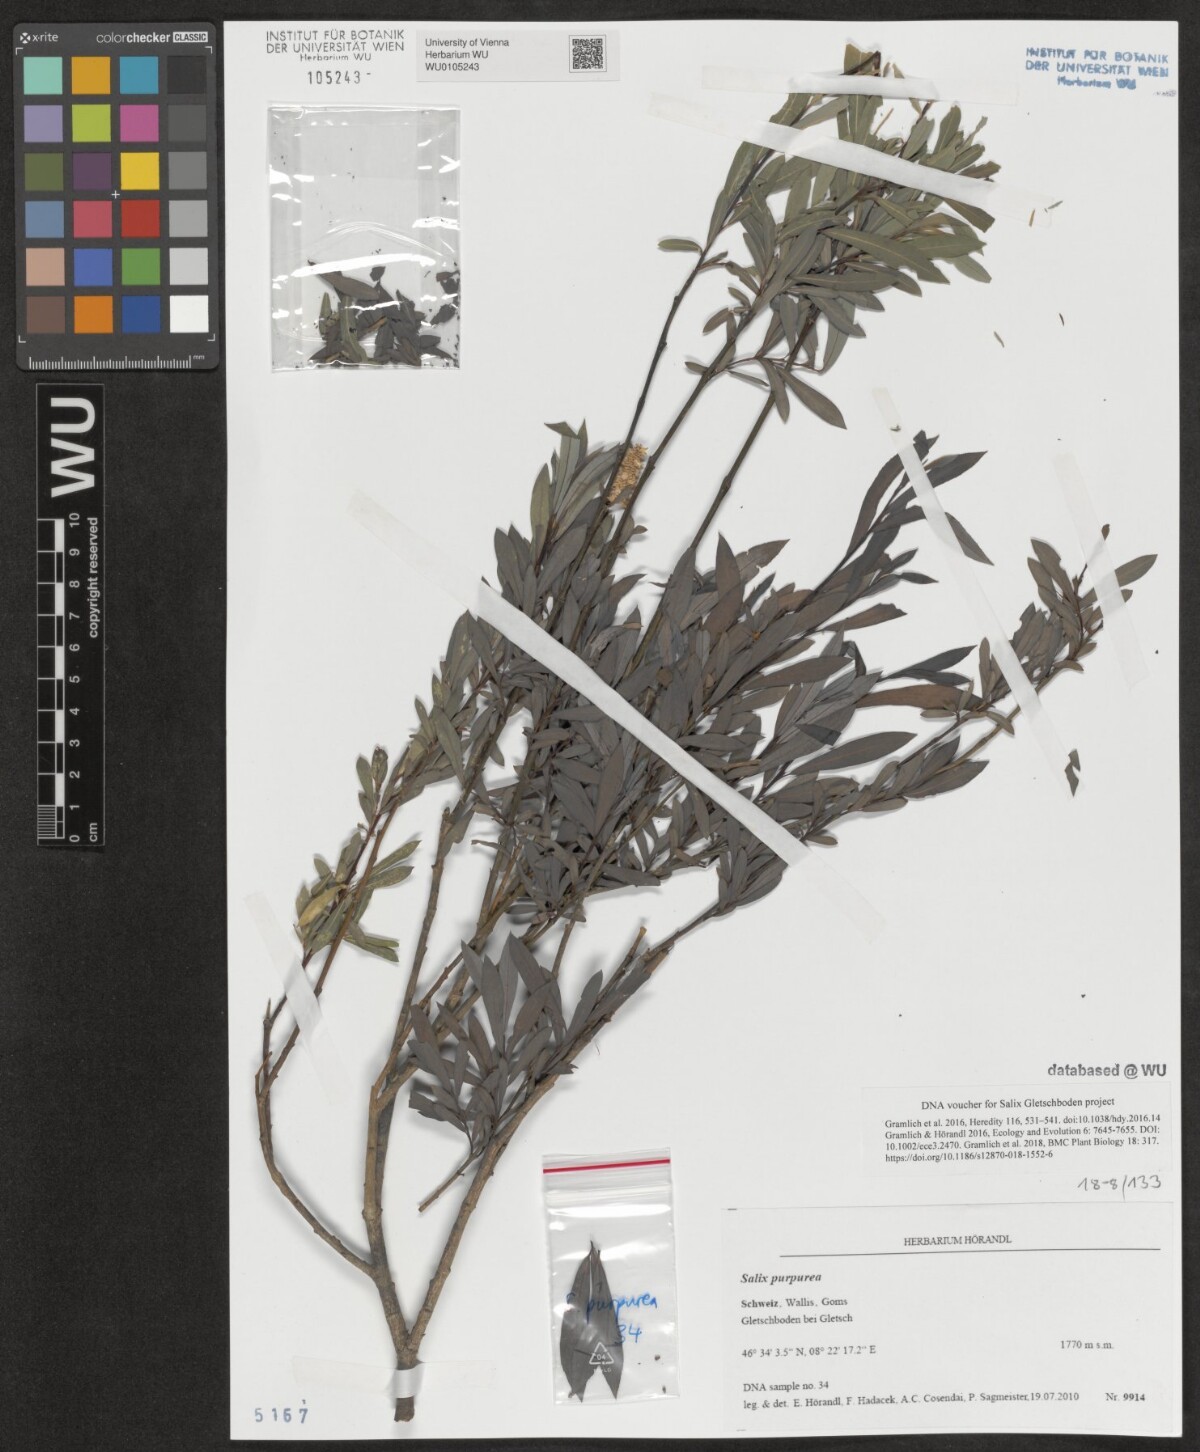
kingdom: Plantae
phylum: Tracheophyta
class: Magnoliopsida
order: Malpighiales
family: Salicaceae
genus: Salix
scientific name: Salix purpurea
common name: Purple willow
